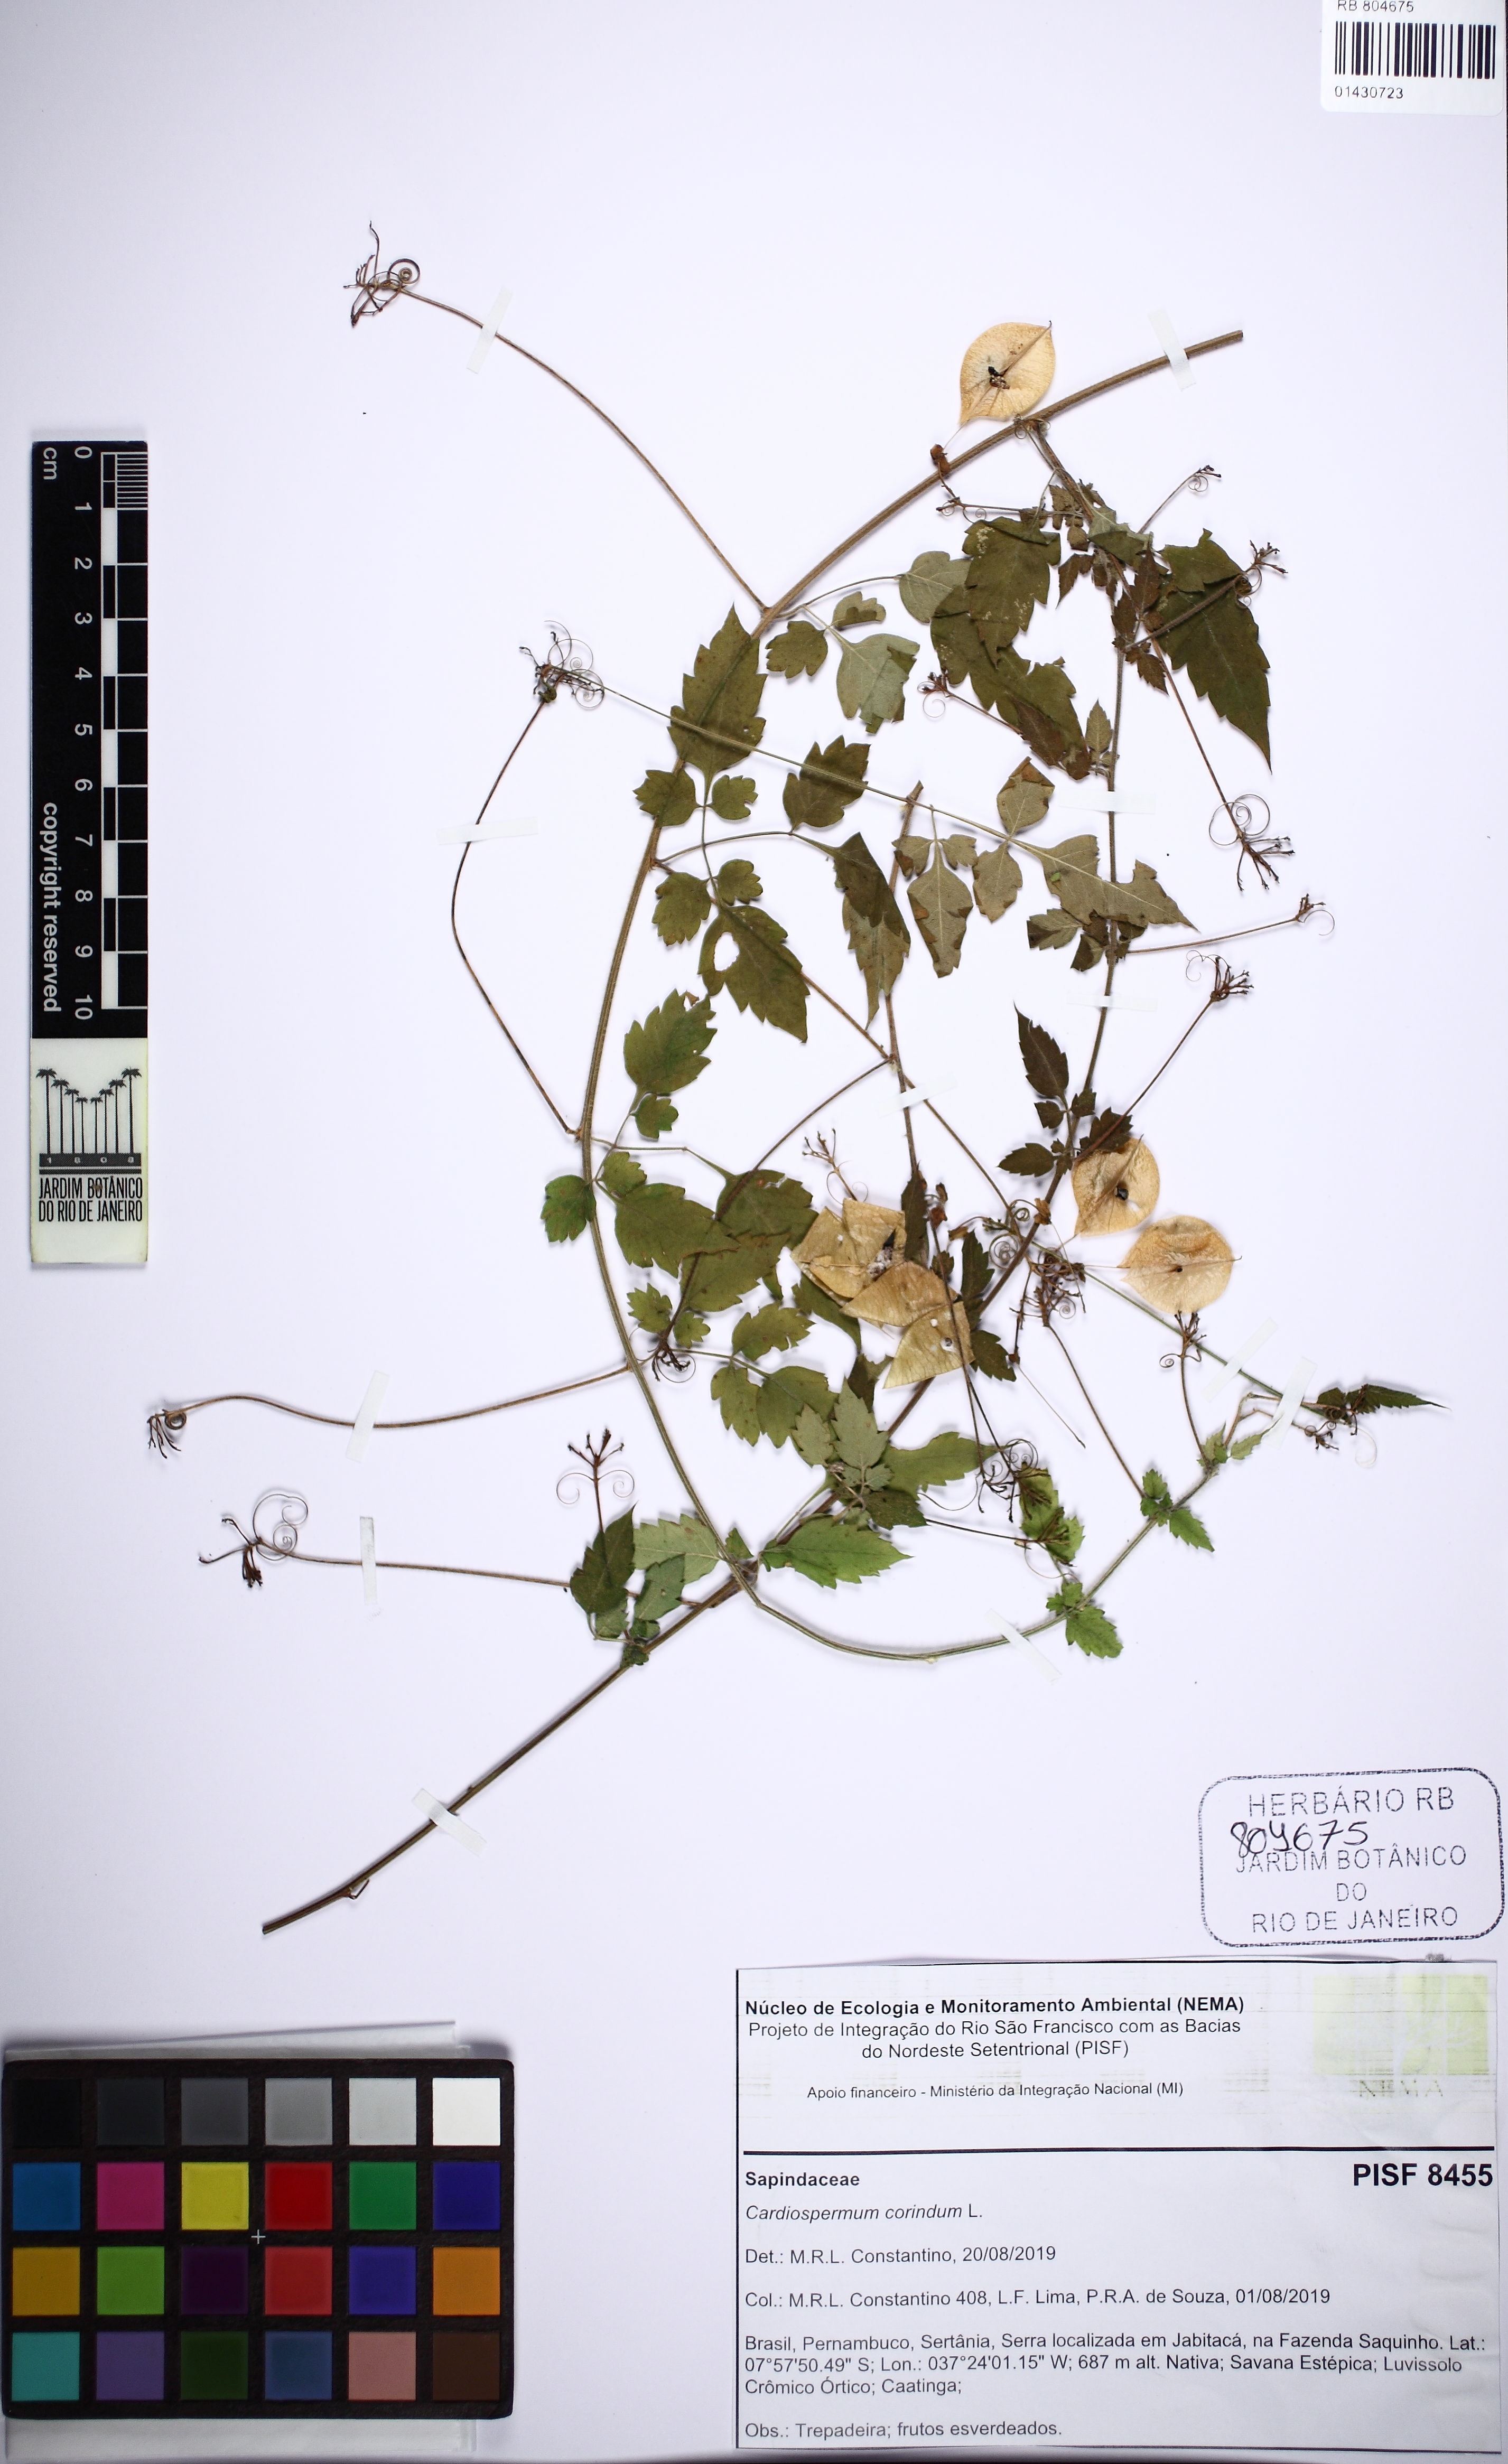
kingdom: Plantae
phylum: Tracheophyta
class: Magnoliopsida
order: Sapindales
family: Sapindaceae
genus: Cardiospermum
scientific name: Cardiospermum corindum
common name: Faux persil
